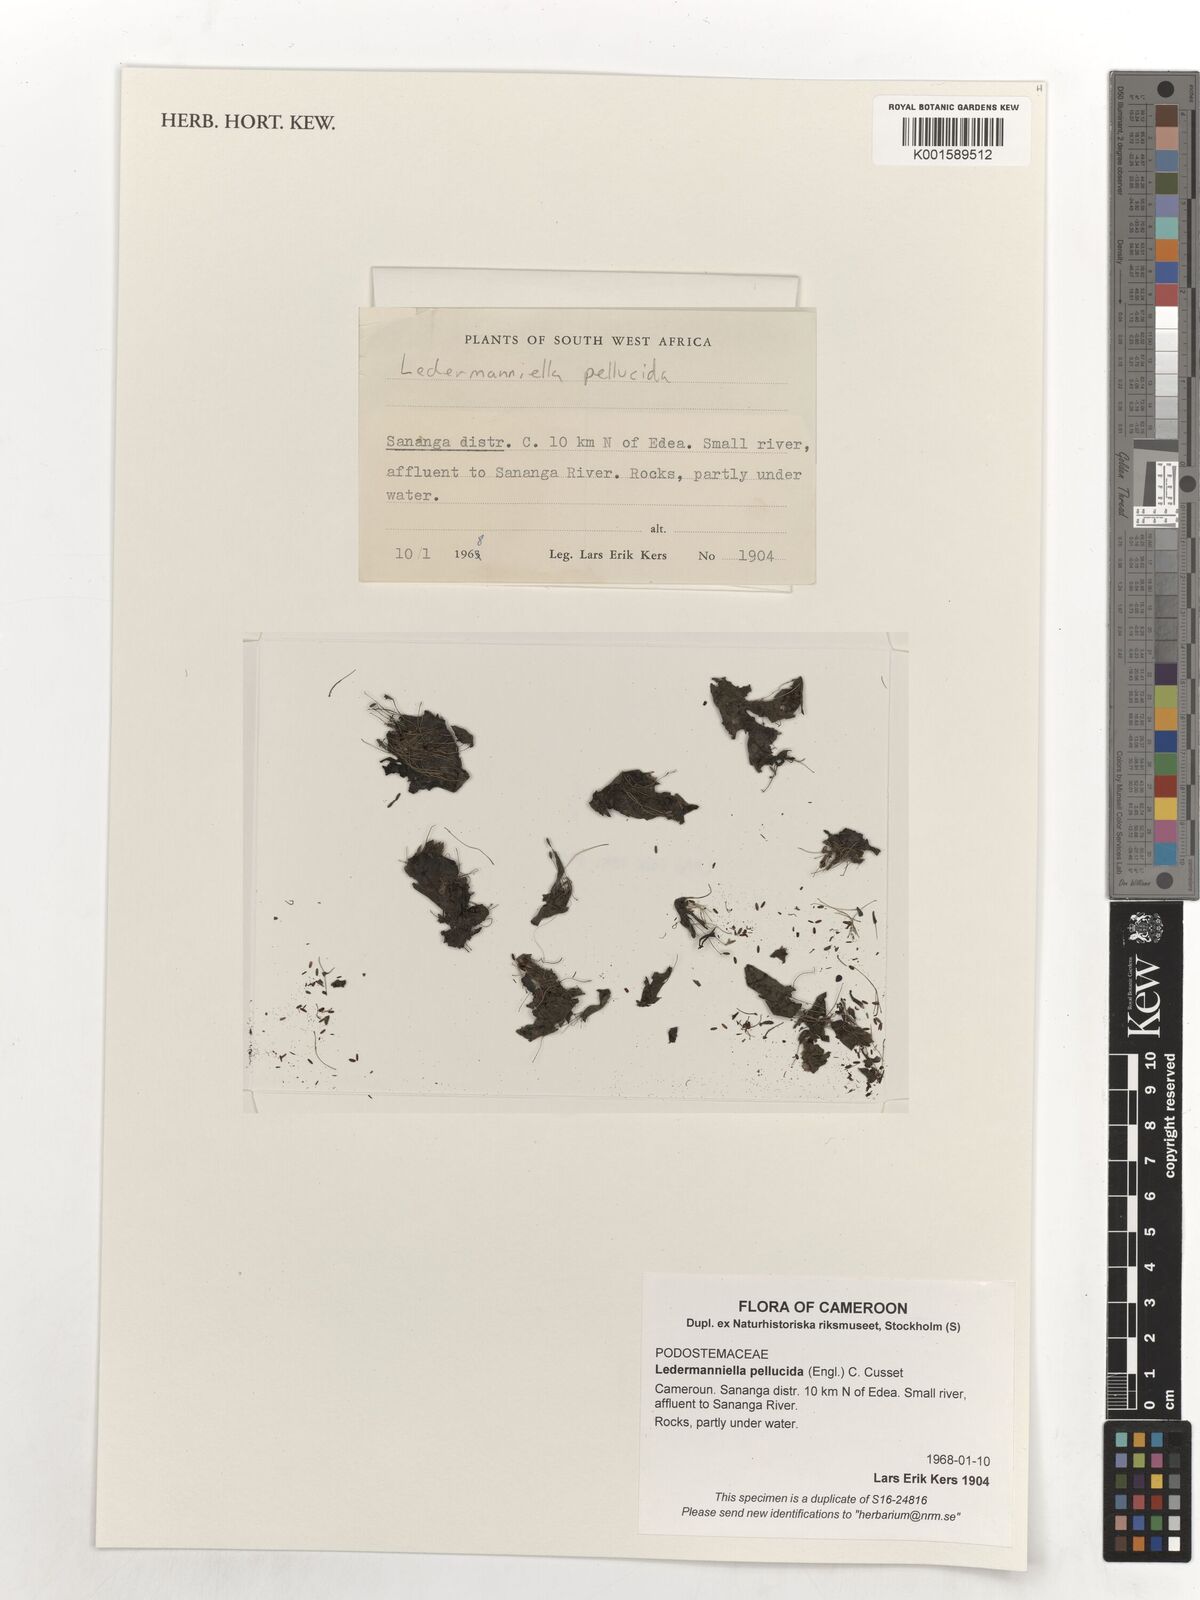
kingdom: Plantae
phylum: Tracheophyta
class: Magnoliopsida
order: Malpighiales
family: Podostemaceae
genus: Macropodiella
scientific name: Macropodiella pellucida
